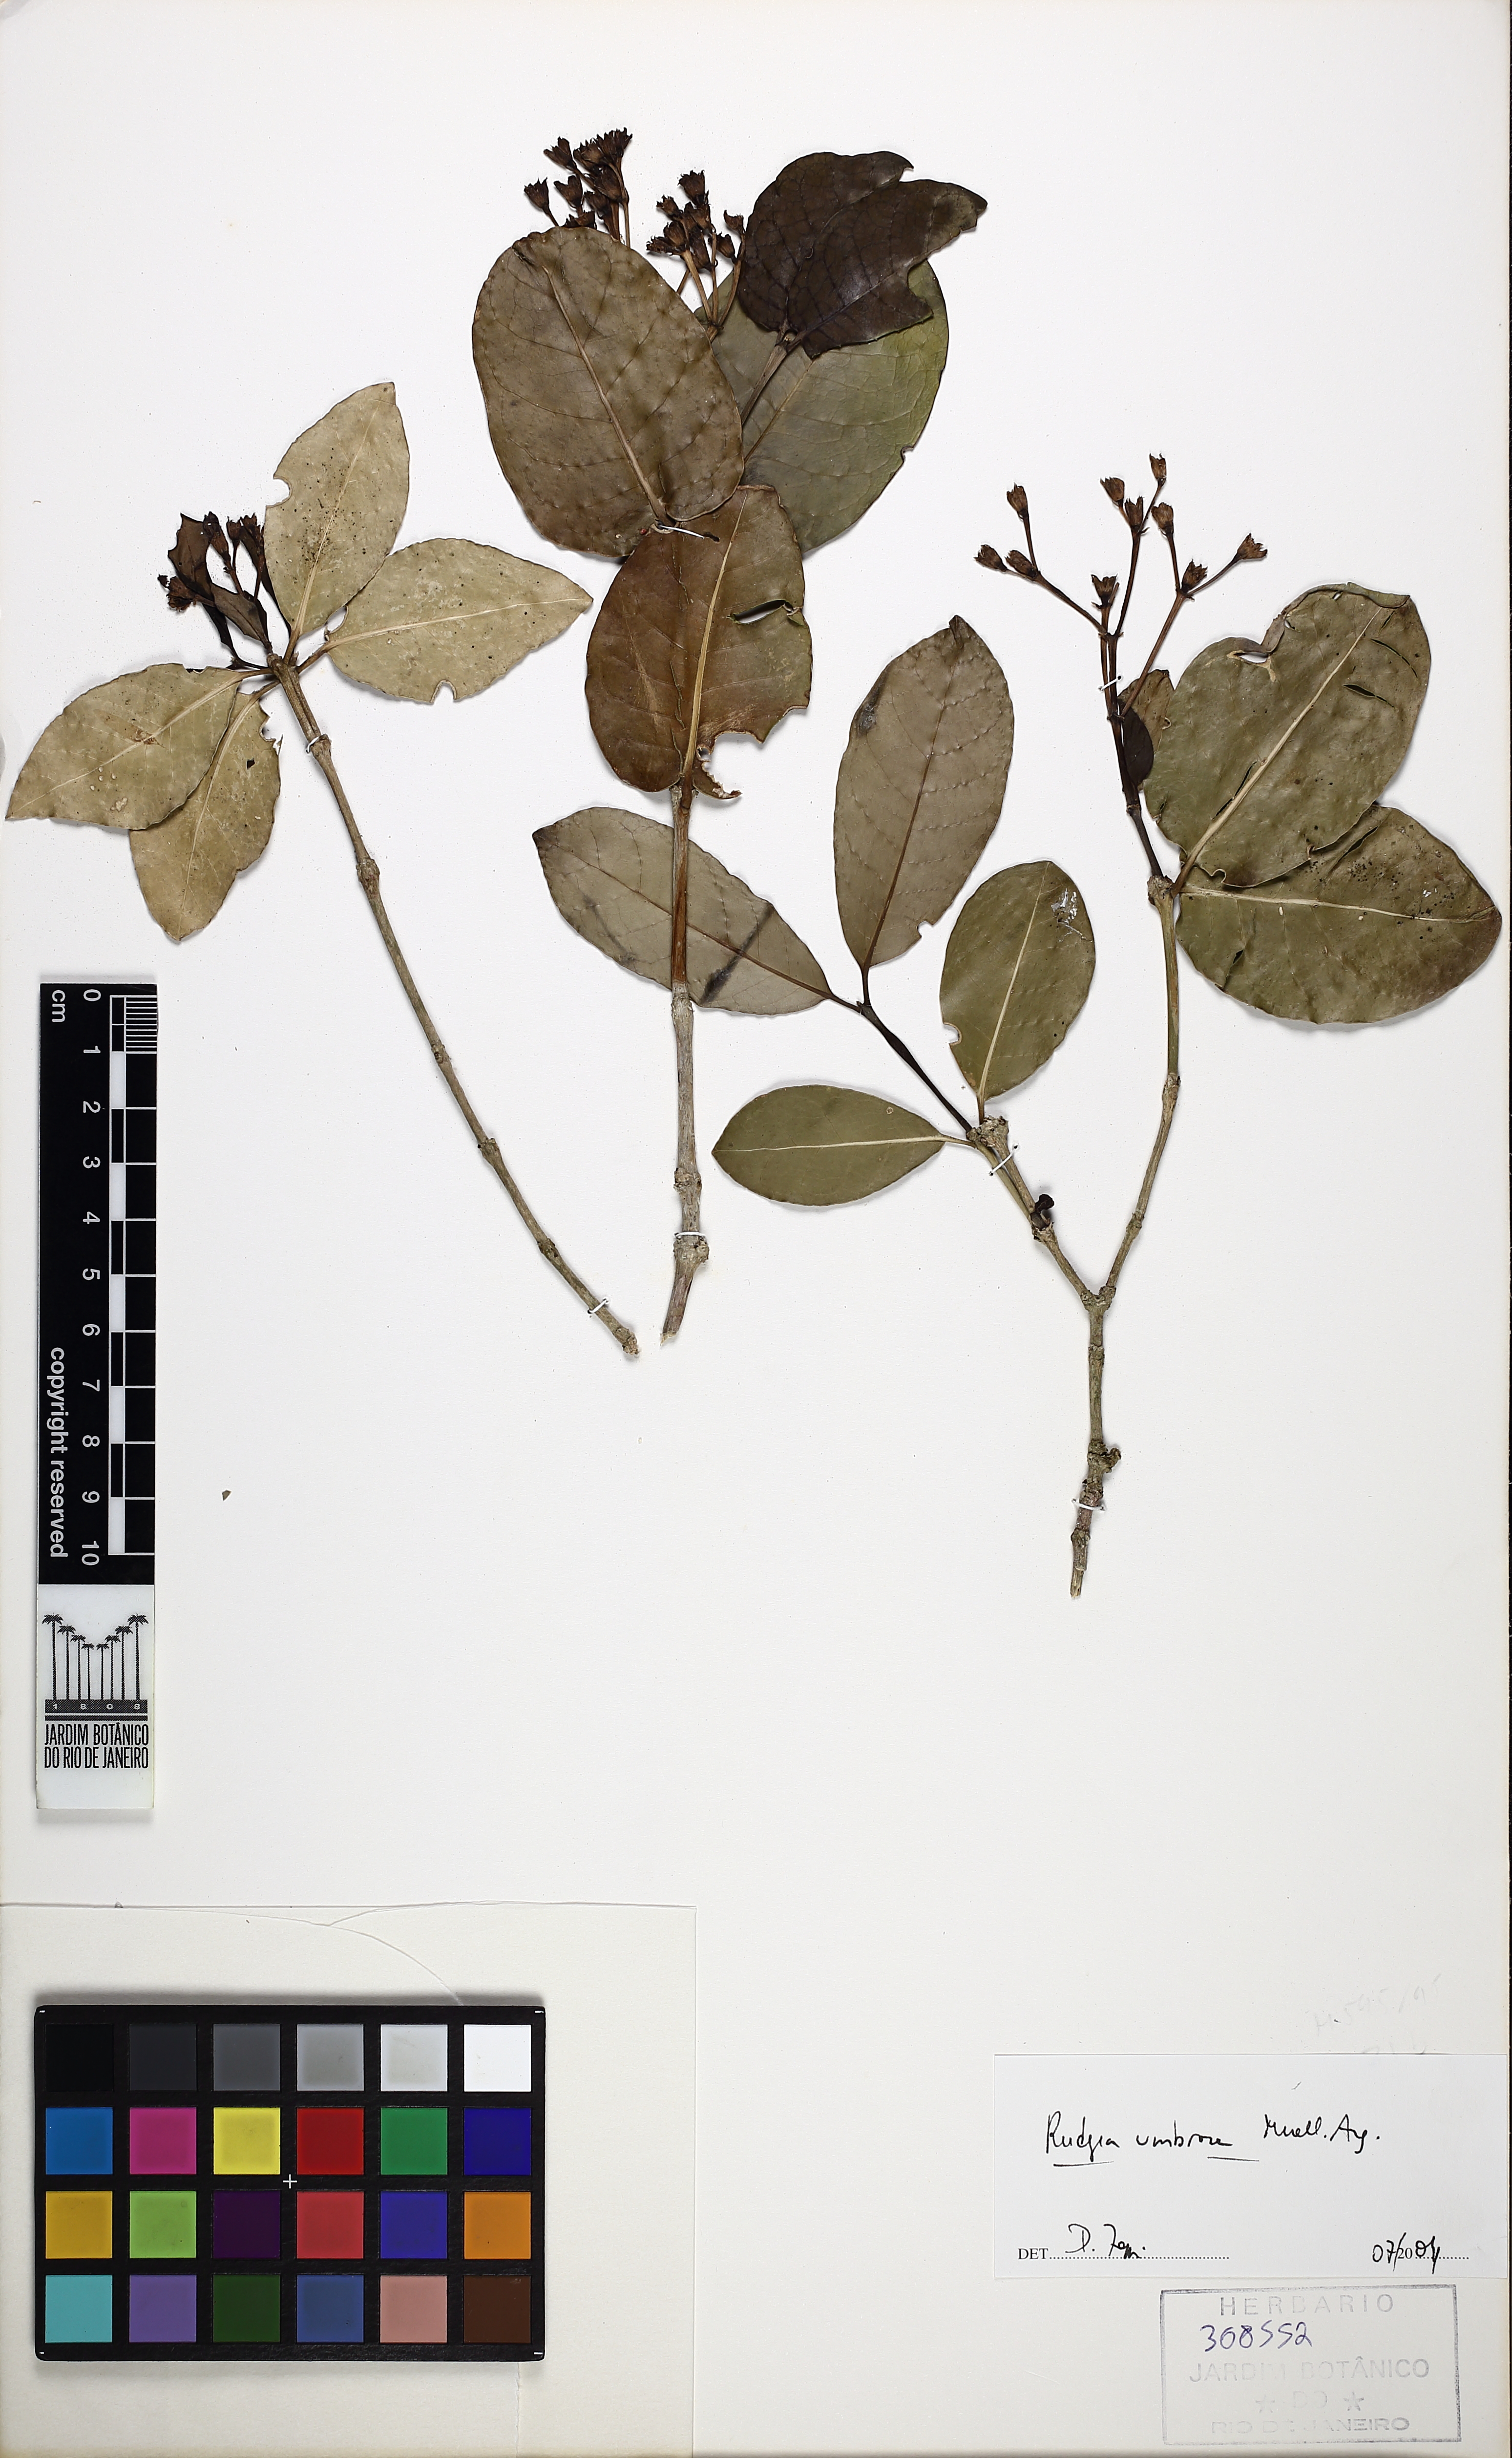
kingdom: Plantae
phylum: Tracheophyta
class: Magnoliopsida
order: Gentianales
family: Rubiaceae
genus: Rudgea
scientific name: Rudgea umbrosa
